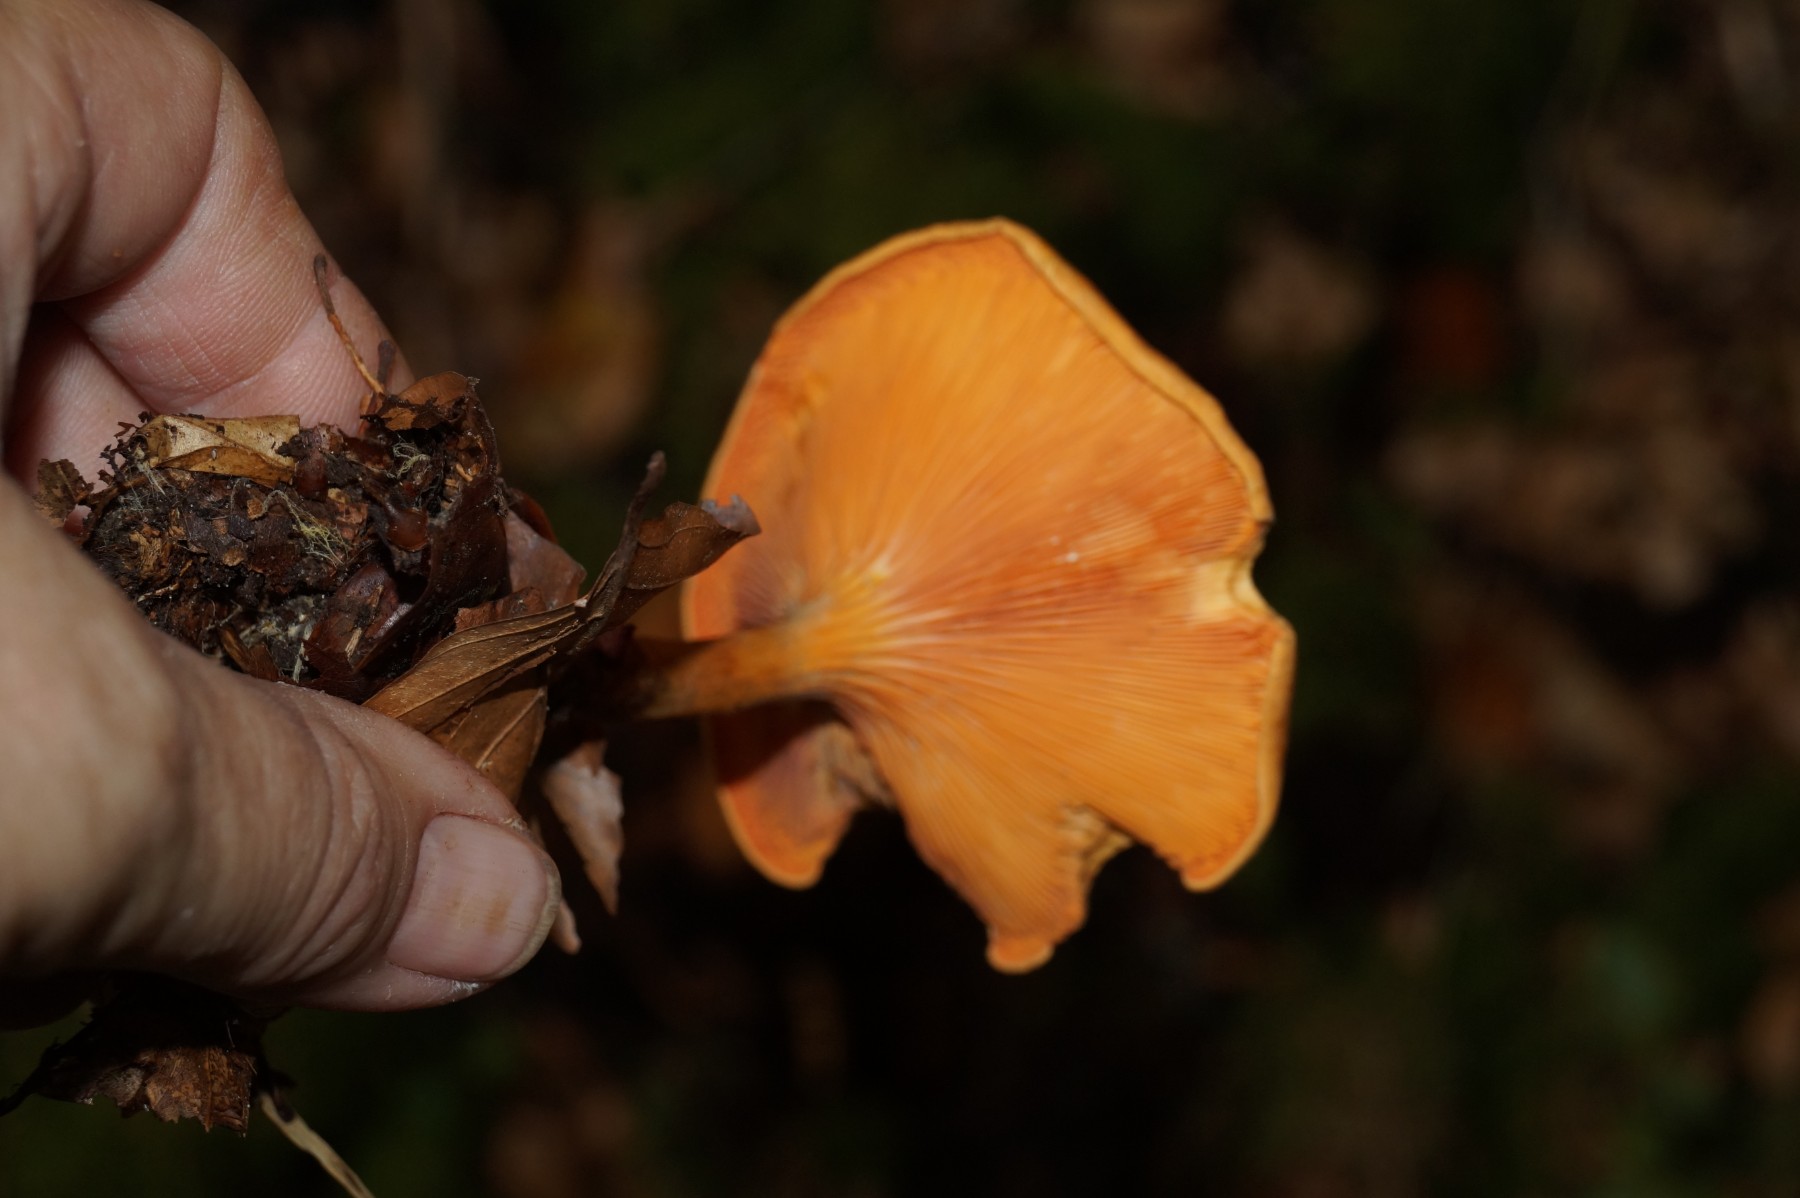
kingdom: Fungi
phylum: Basidiomycota
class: Agaricomycetes
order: Boletales
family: Hygrophoropsidaceae
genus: Hygrophoropsis
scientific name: Hygrophoropsis aurantiaca
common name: almindelig orangekantarel
